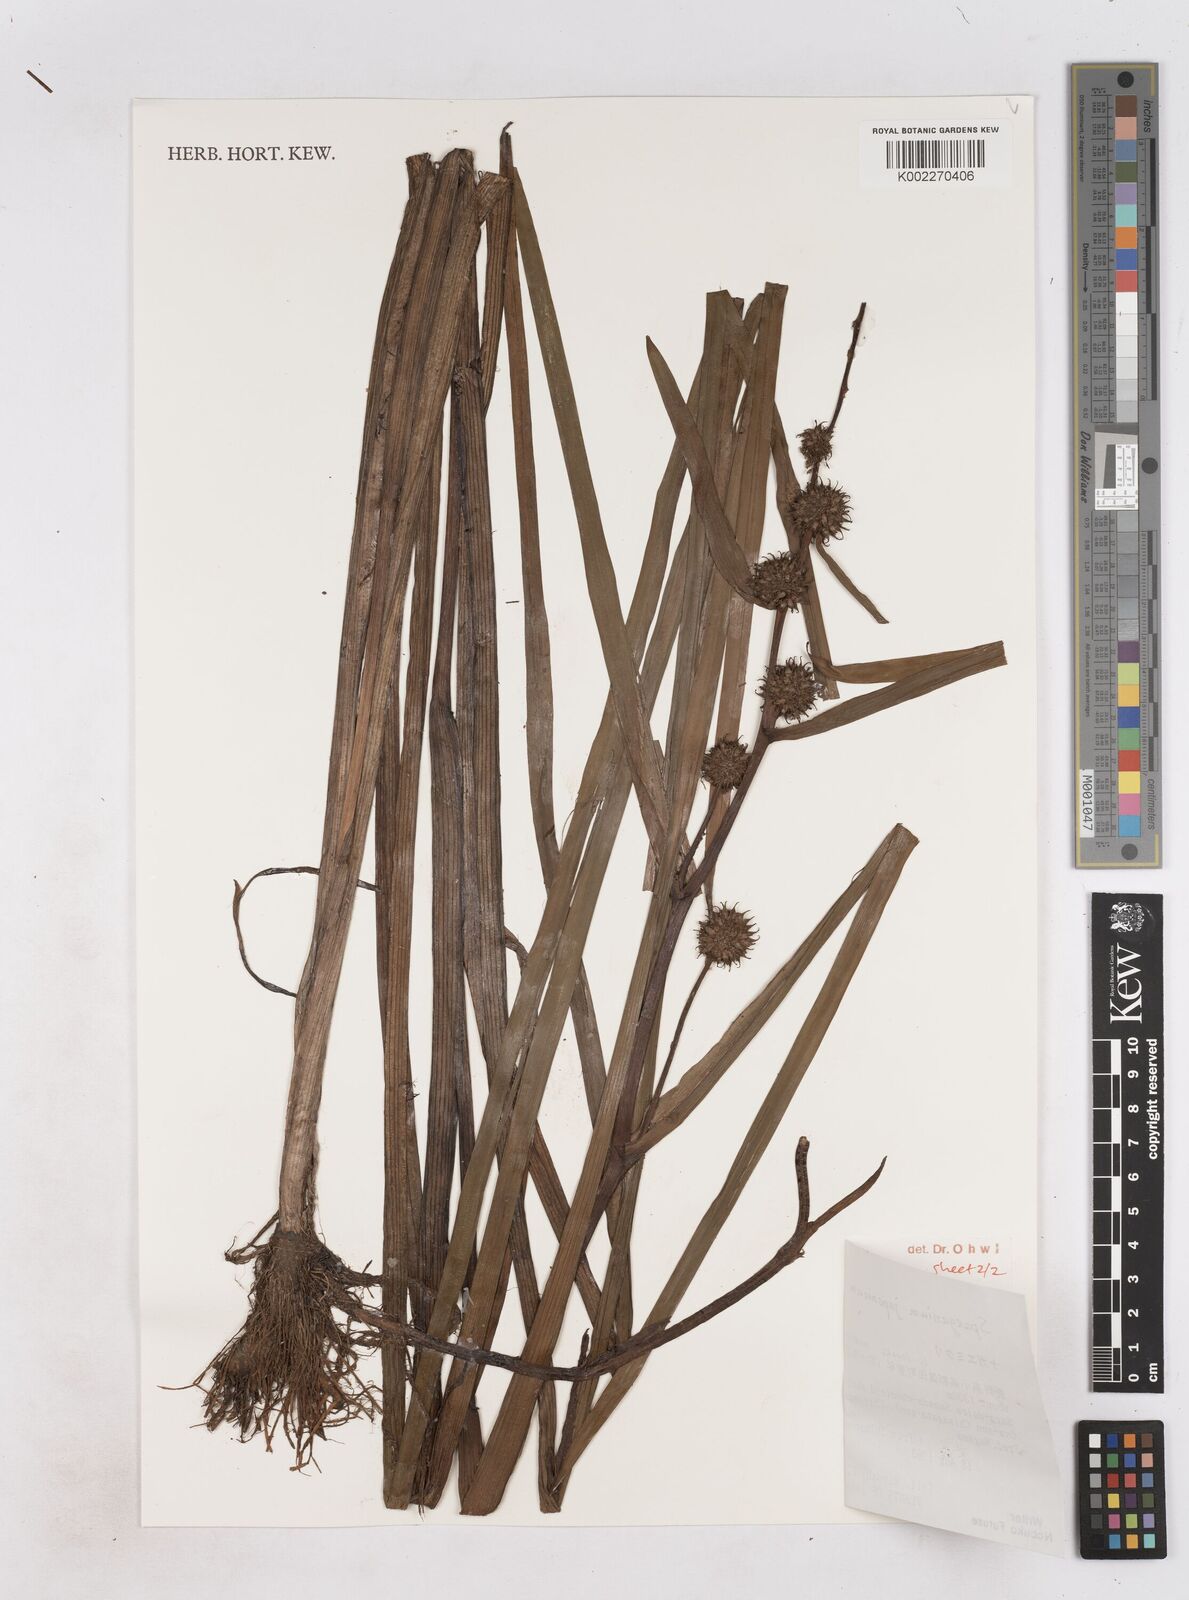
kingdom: Plantae
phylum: Tracheophyta
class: Liliopsida
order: Poales
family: Typhaceae
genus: Sparganium
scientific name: Sparganium japonicum
